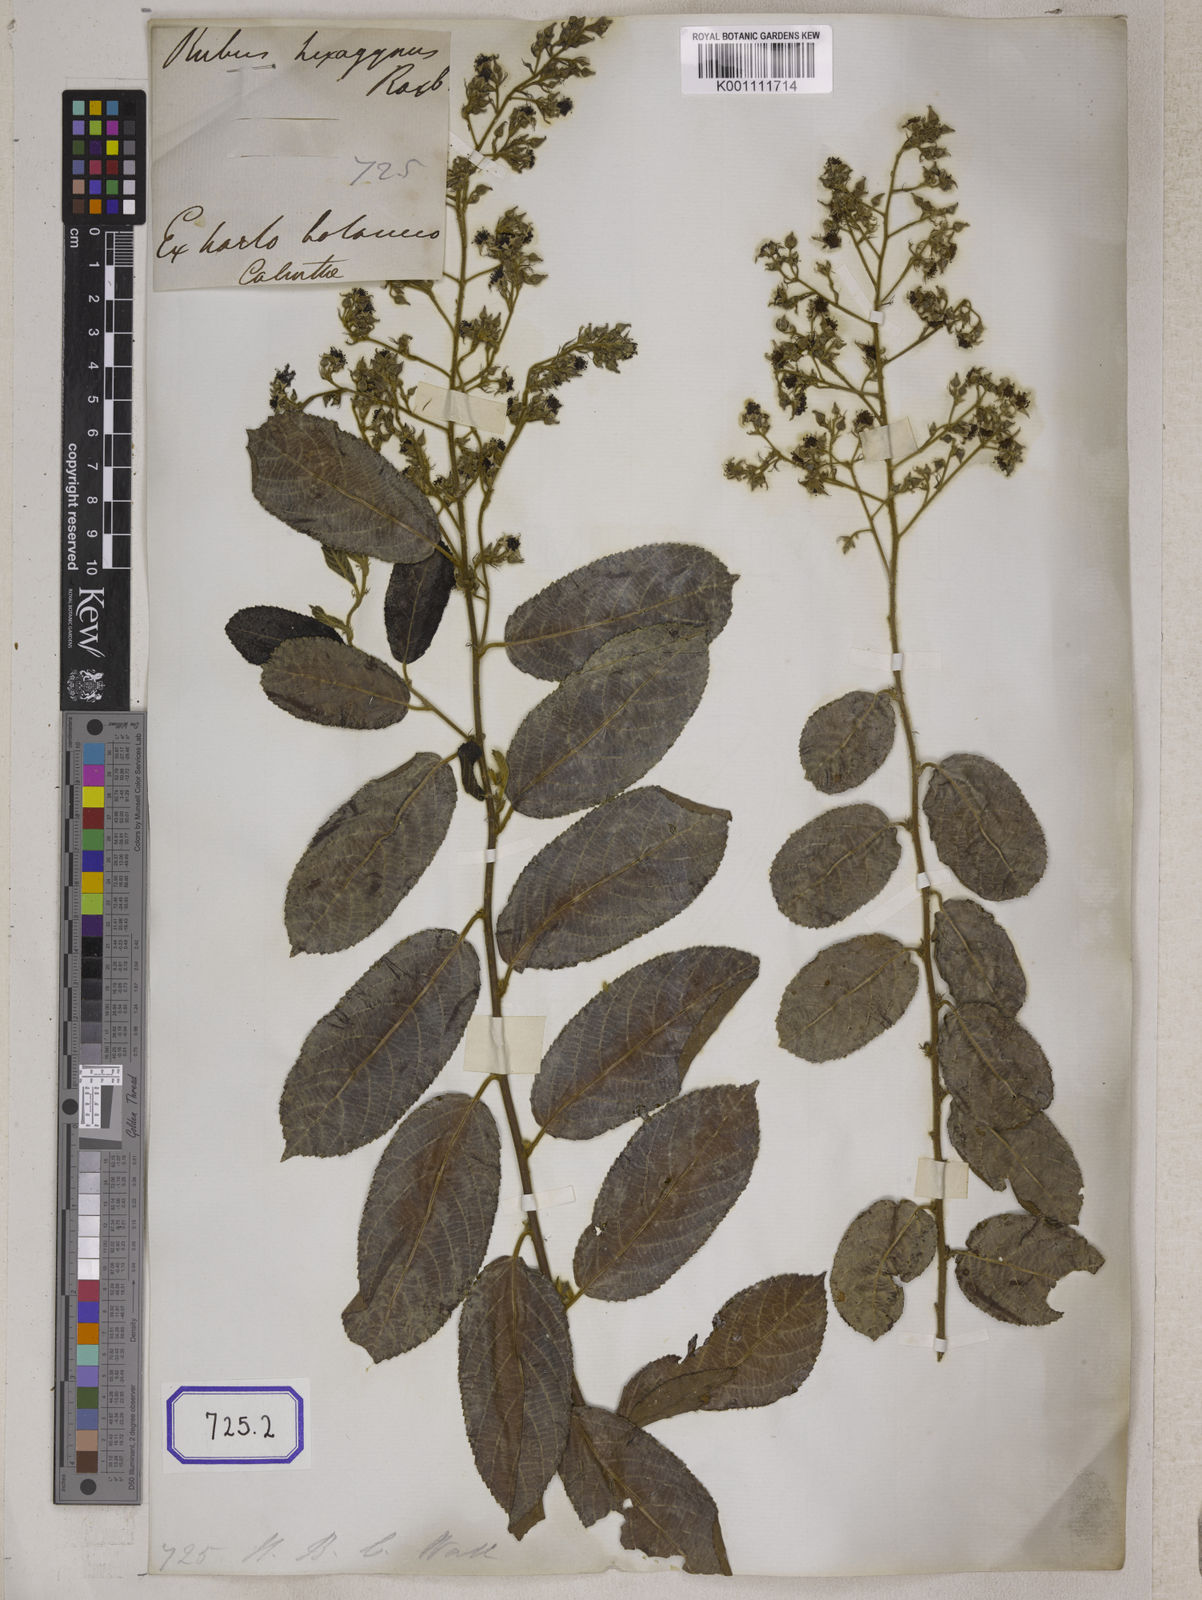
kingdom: Plantae
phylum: Tracheophyta
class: Magnoliopsida
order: Rosales
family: Rosaceae
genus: Rubus
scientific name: Rubus hexagynus
